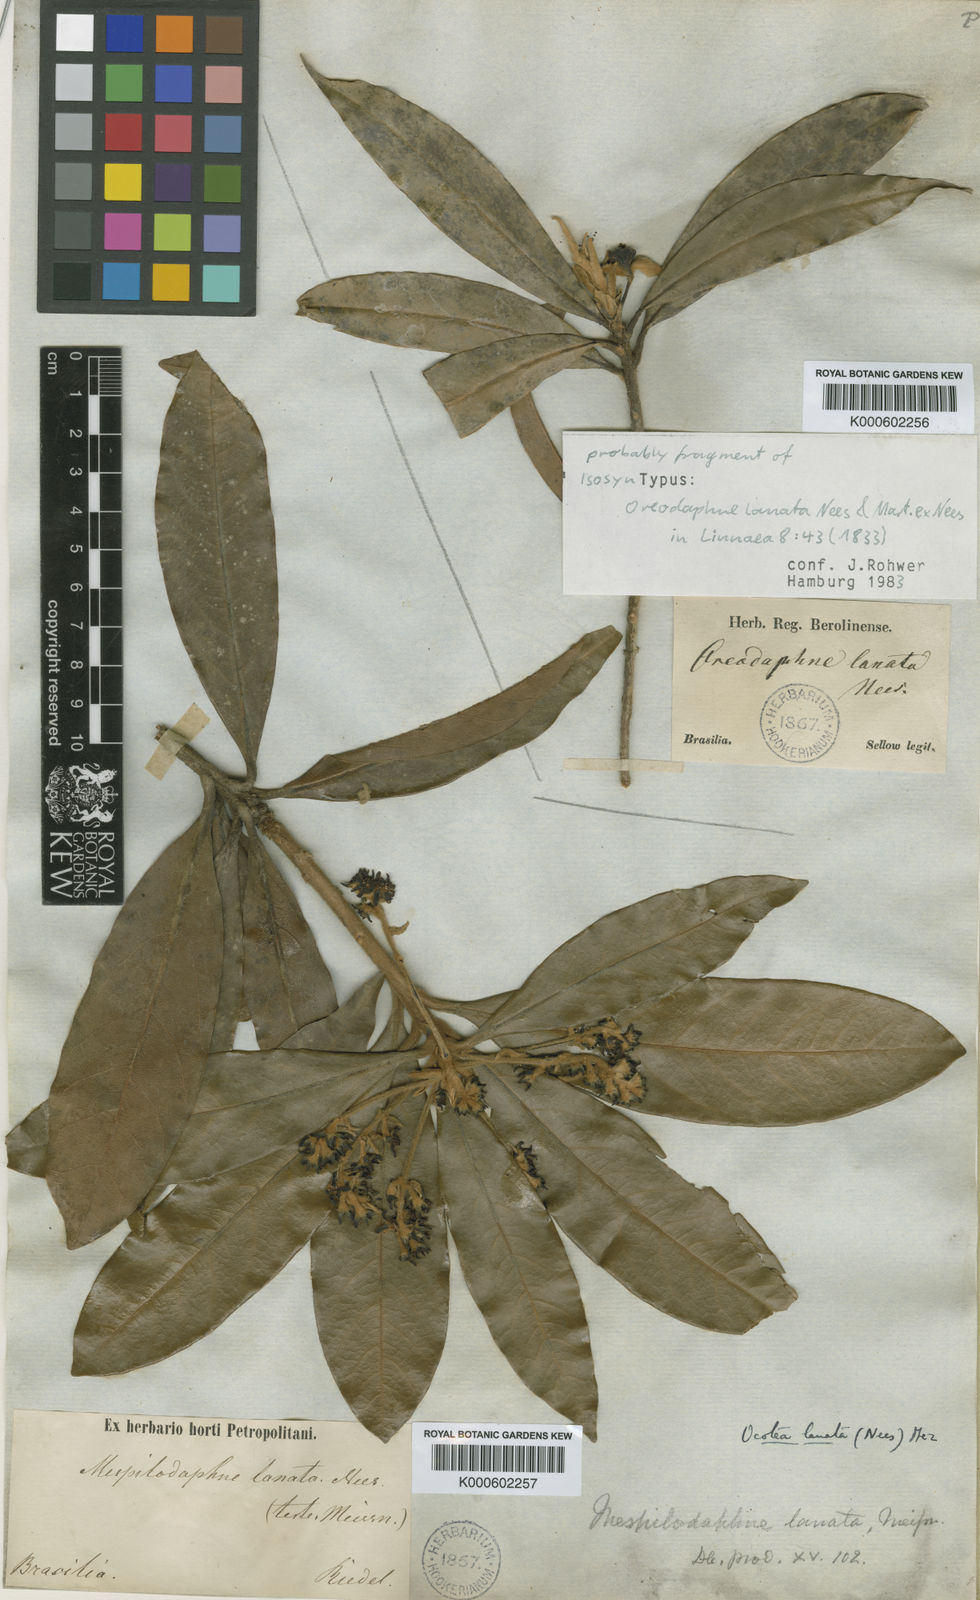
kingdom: Plantae
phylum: Tracheophyta
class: Magnoliopsida
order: Laurales
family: Lauraceae
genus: Ocotea
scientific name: Ocotea lanata
